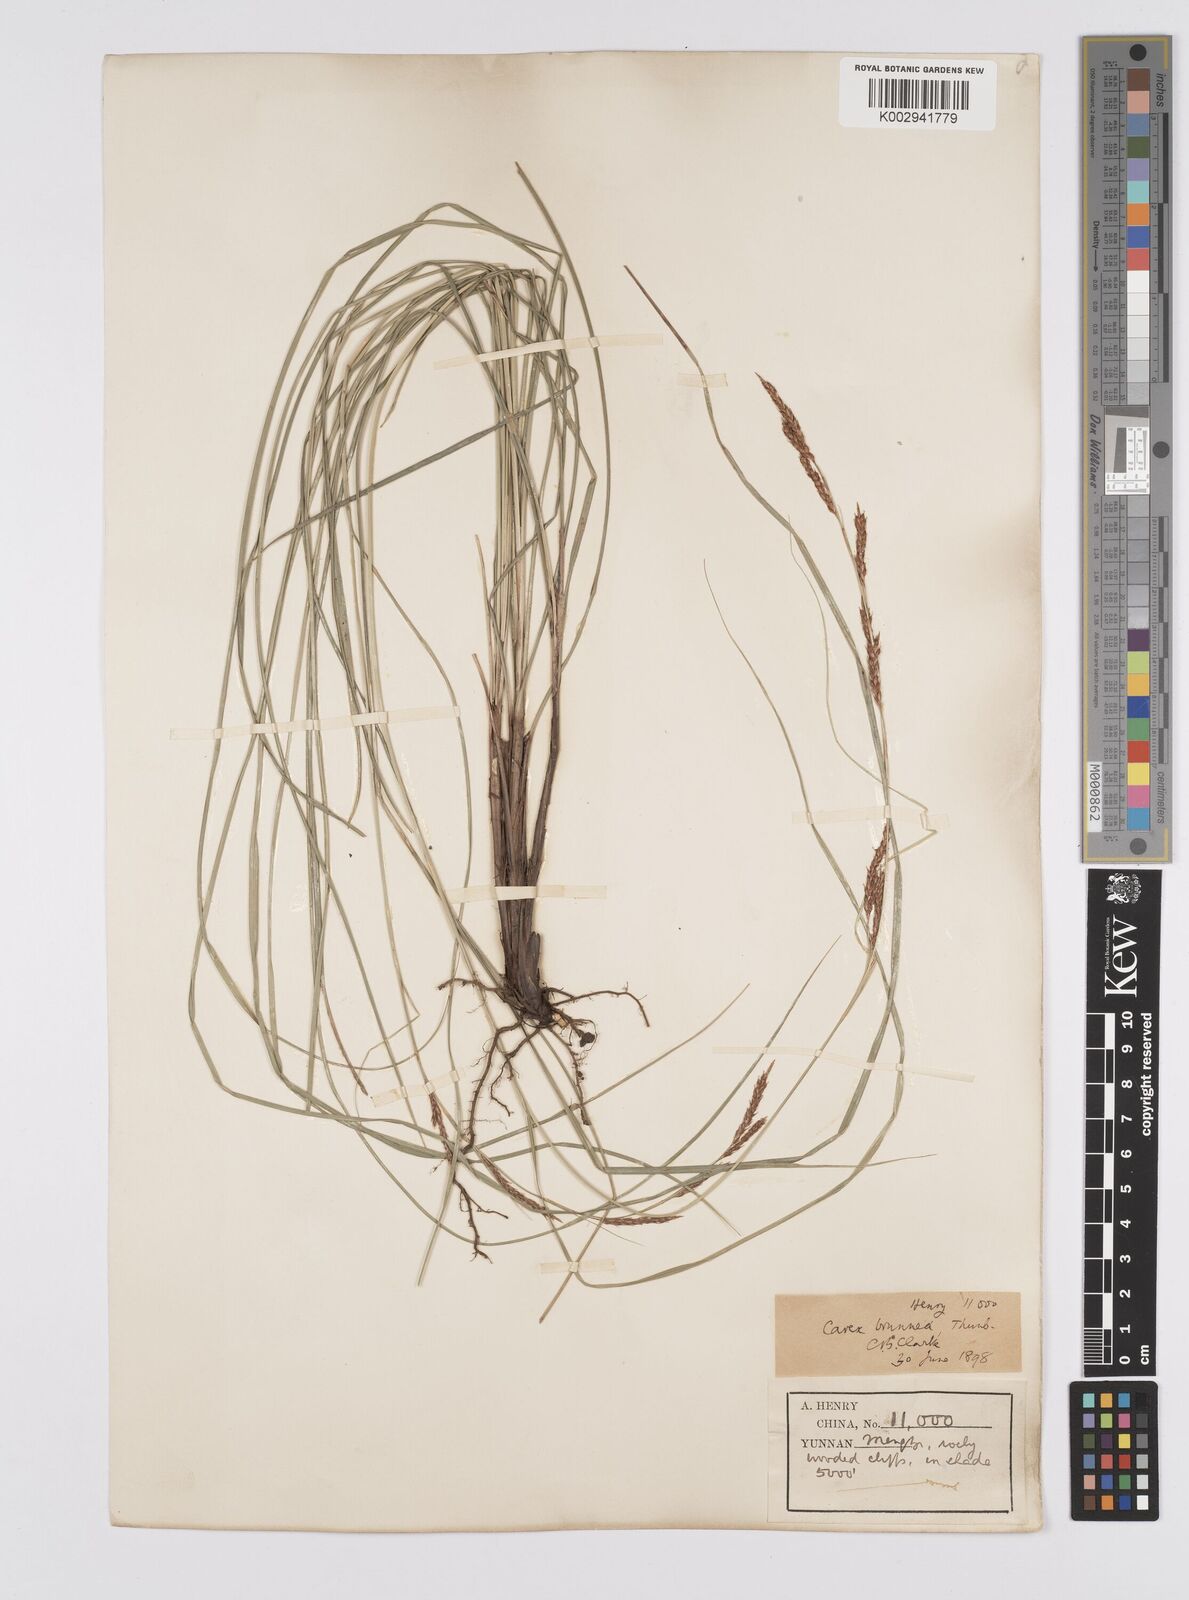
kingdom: Plantae
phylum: Tracheophyta
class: Liliopsida
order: Poales
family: Cyperaceae
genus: Carex
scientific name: Carex brunnea
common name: Greater brown sedge
